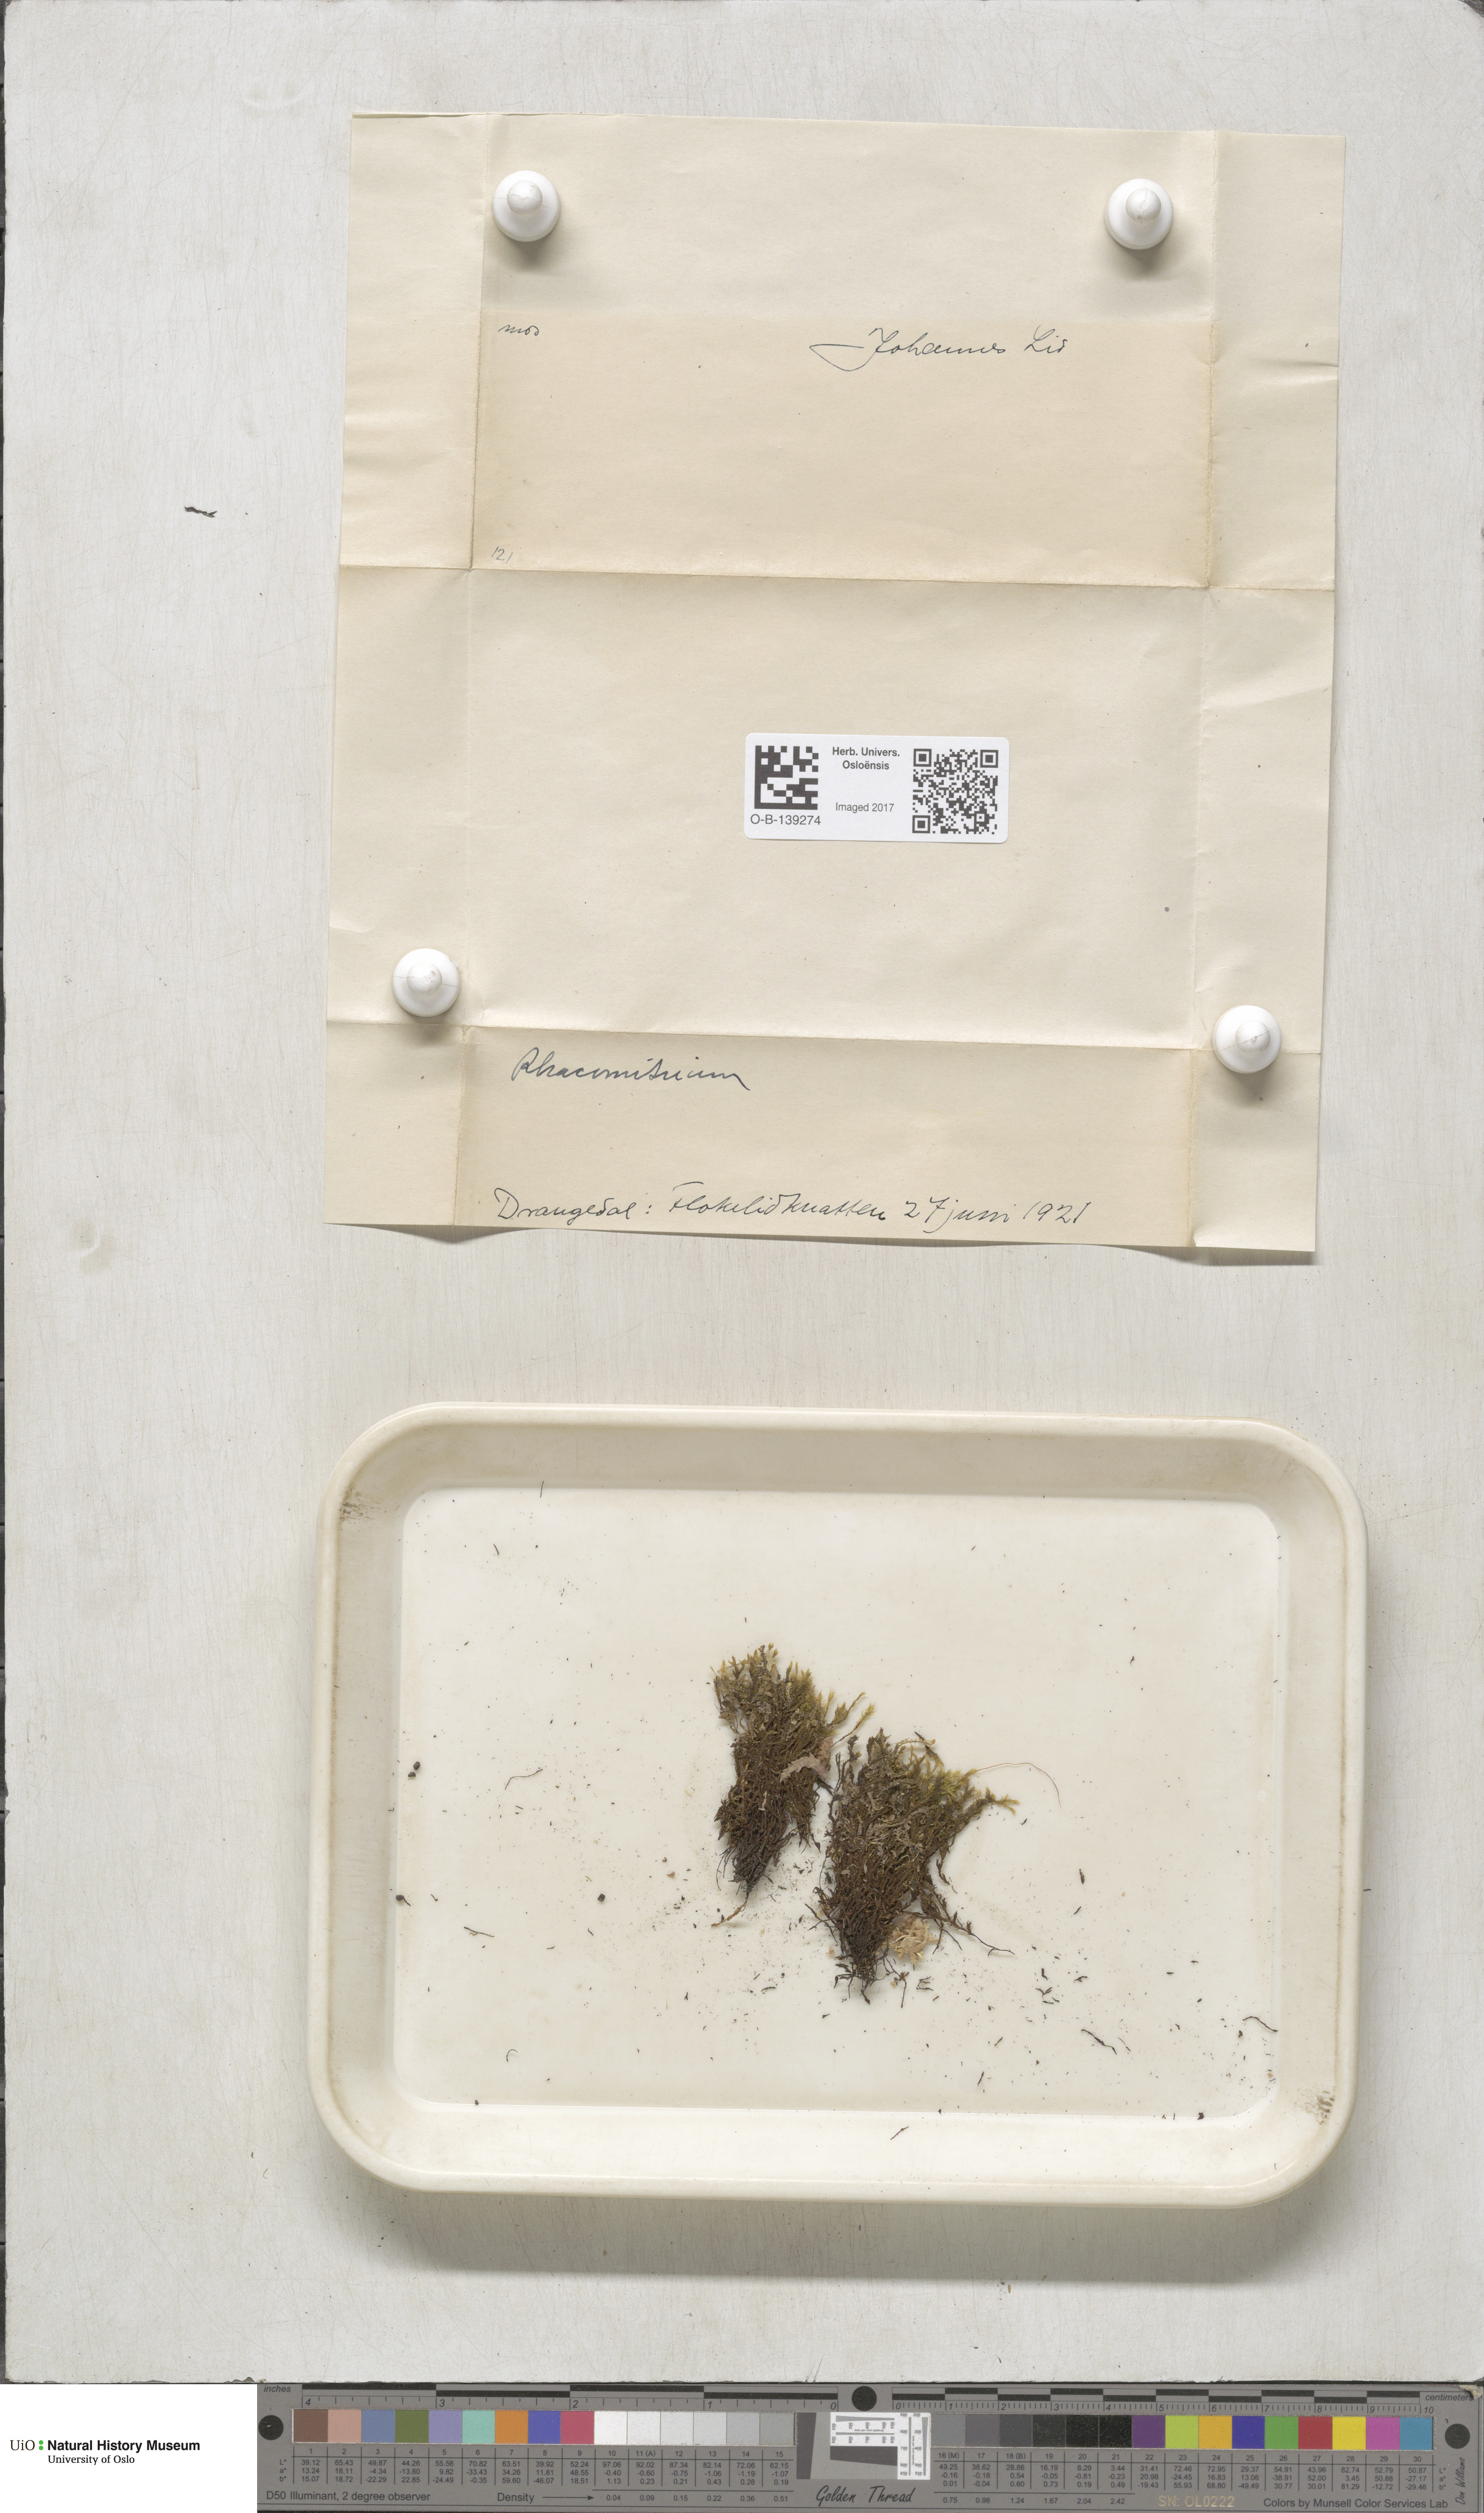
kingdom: Plantae
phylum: Bryophyta
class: Bryopsida
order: Grimmiales
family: Grimmiaceae
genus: Racomitrium
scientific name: Racomitrium
